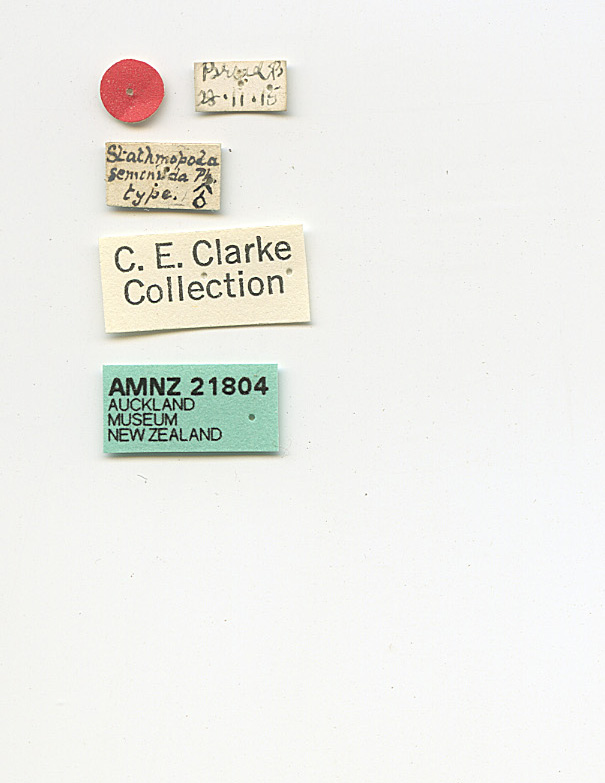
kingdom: Animalia
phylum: Arthropoda
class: Insecta
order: Lepidoptera
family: Stathmopodidae
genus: Stathmopoda
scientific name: Stathmopoda mysteriastis
